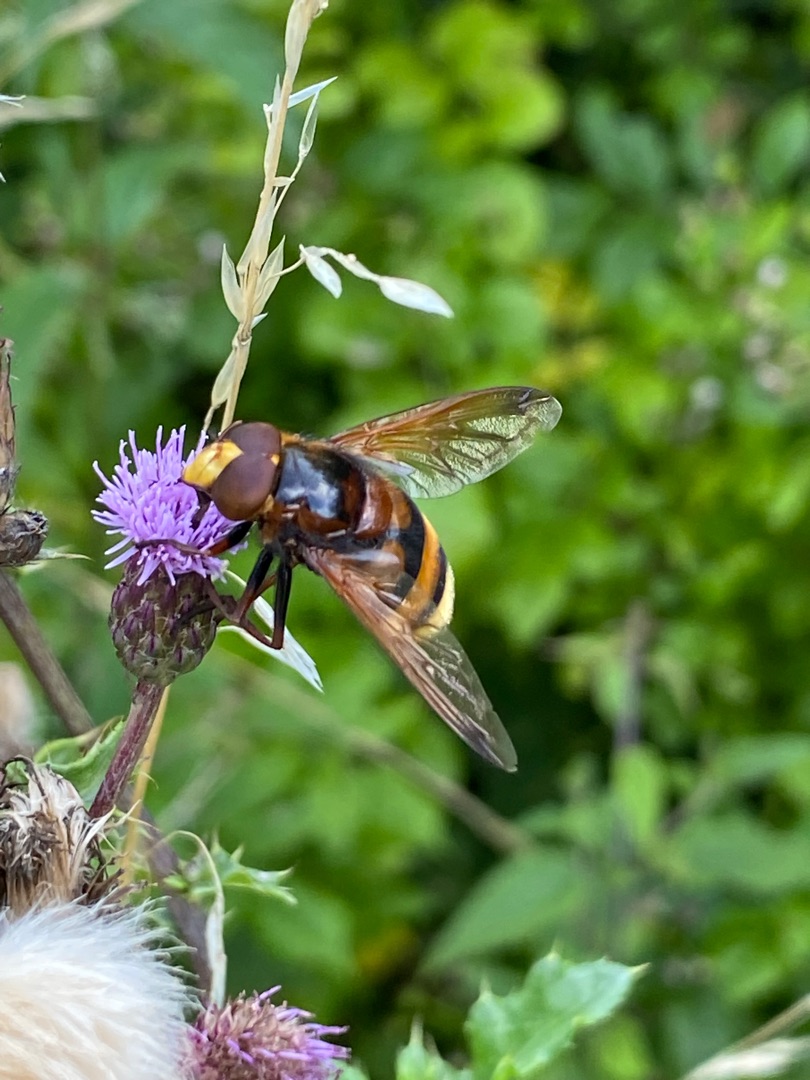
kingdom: Animalia
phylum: Arthropoda
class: Insecta
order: Diptera
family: Syrphidae
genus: Volucella
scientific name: Volucella zonaria
